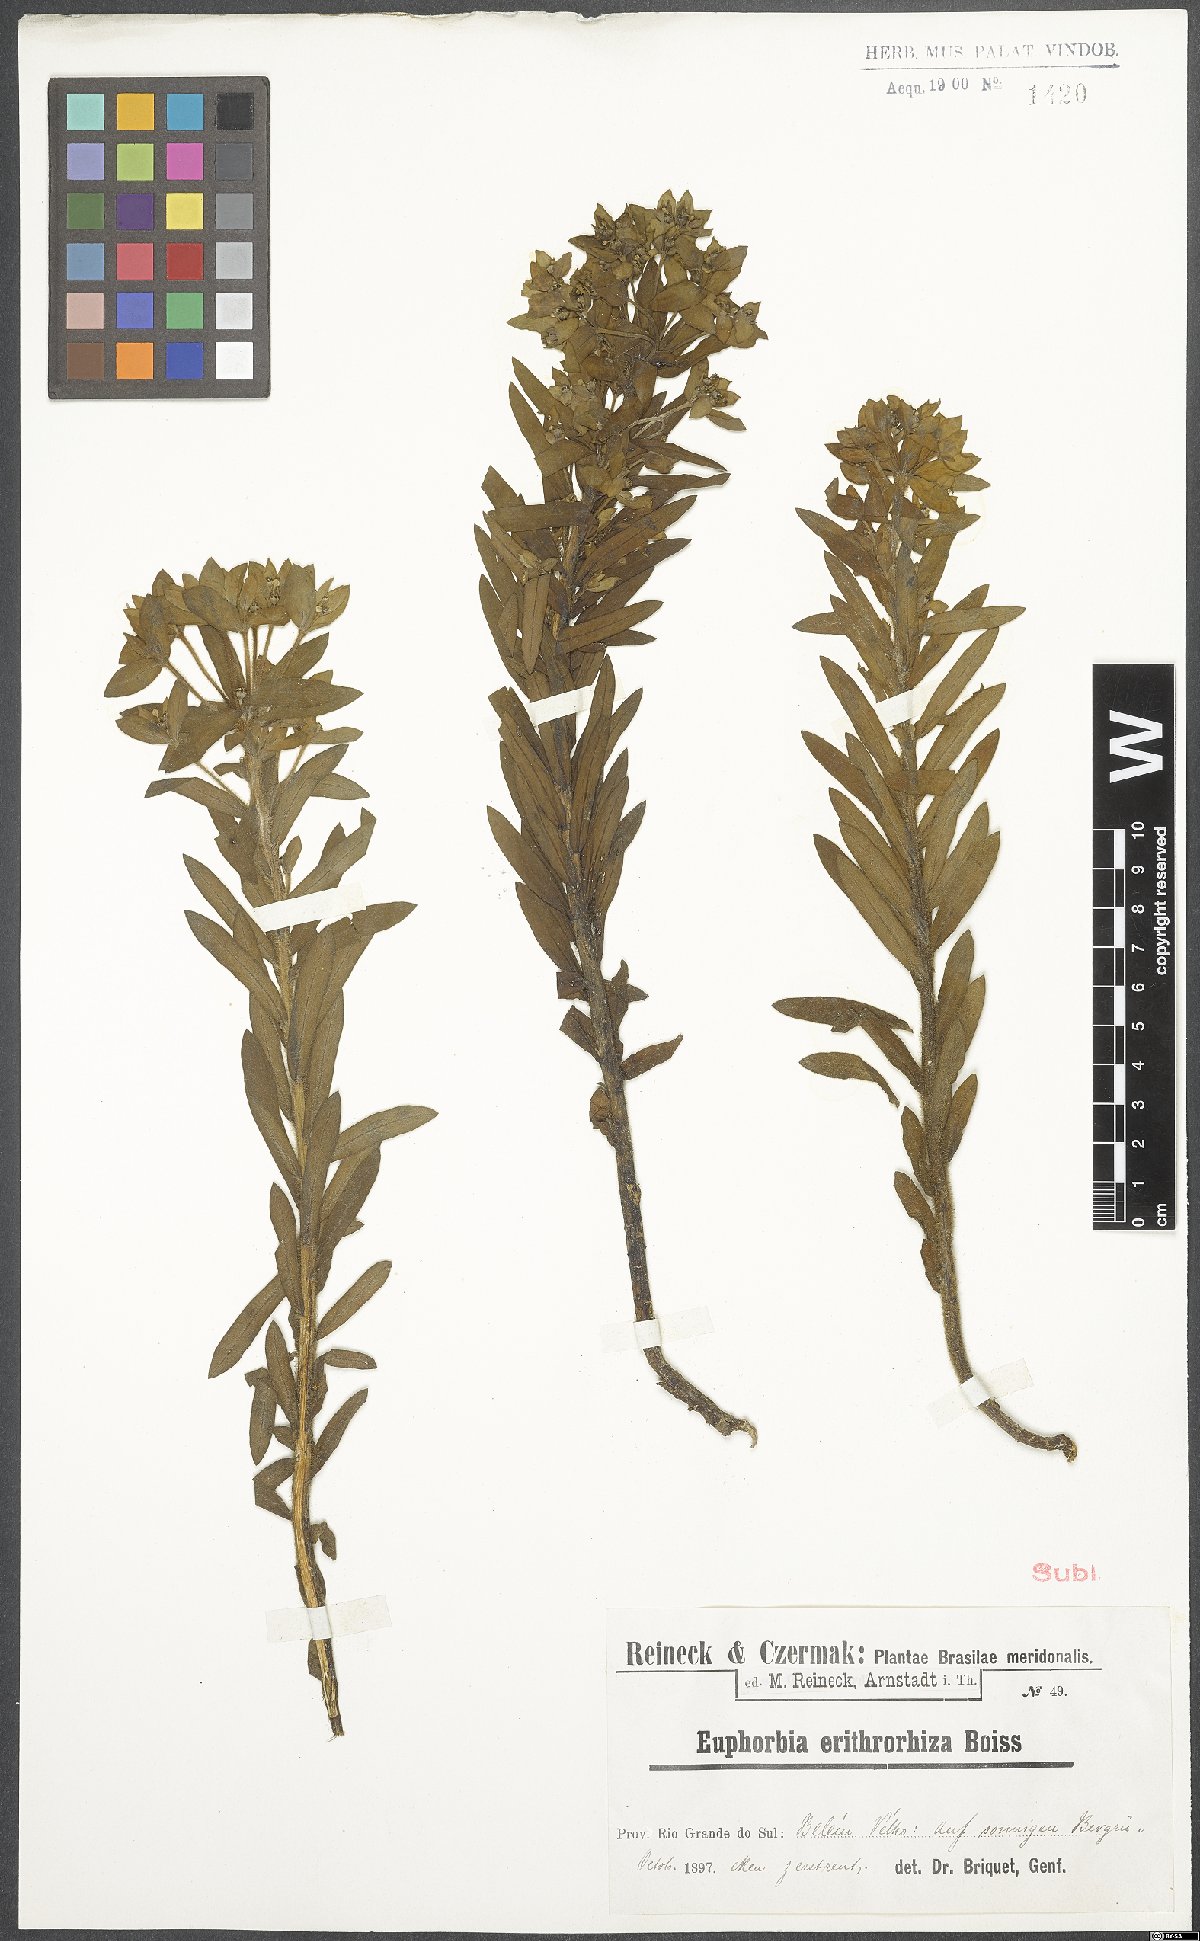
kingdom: Plantae
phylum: Tracheophyta
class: Magnoliopsida
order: Malpighiales
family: Euphorbiaceae
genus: Euphorbia
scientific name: Euphorbia papillosa
